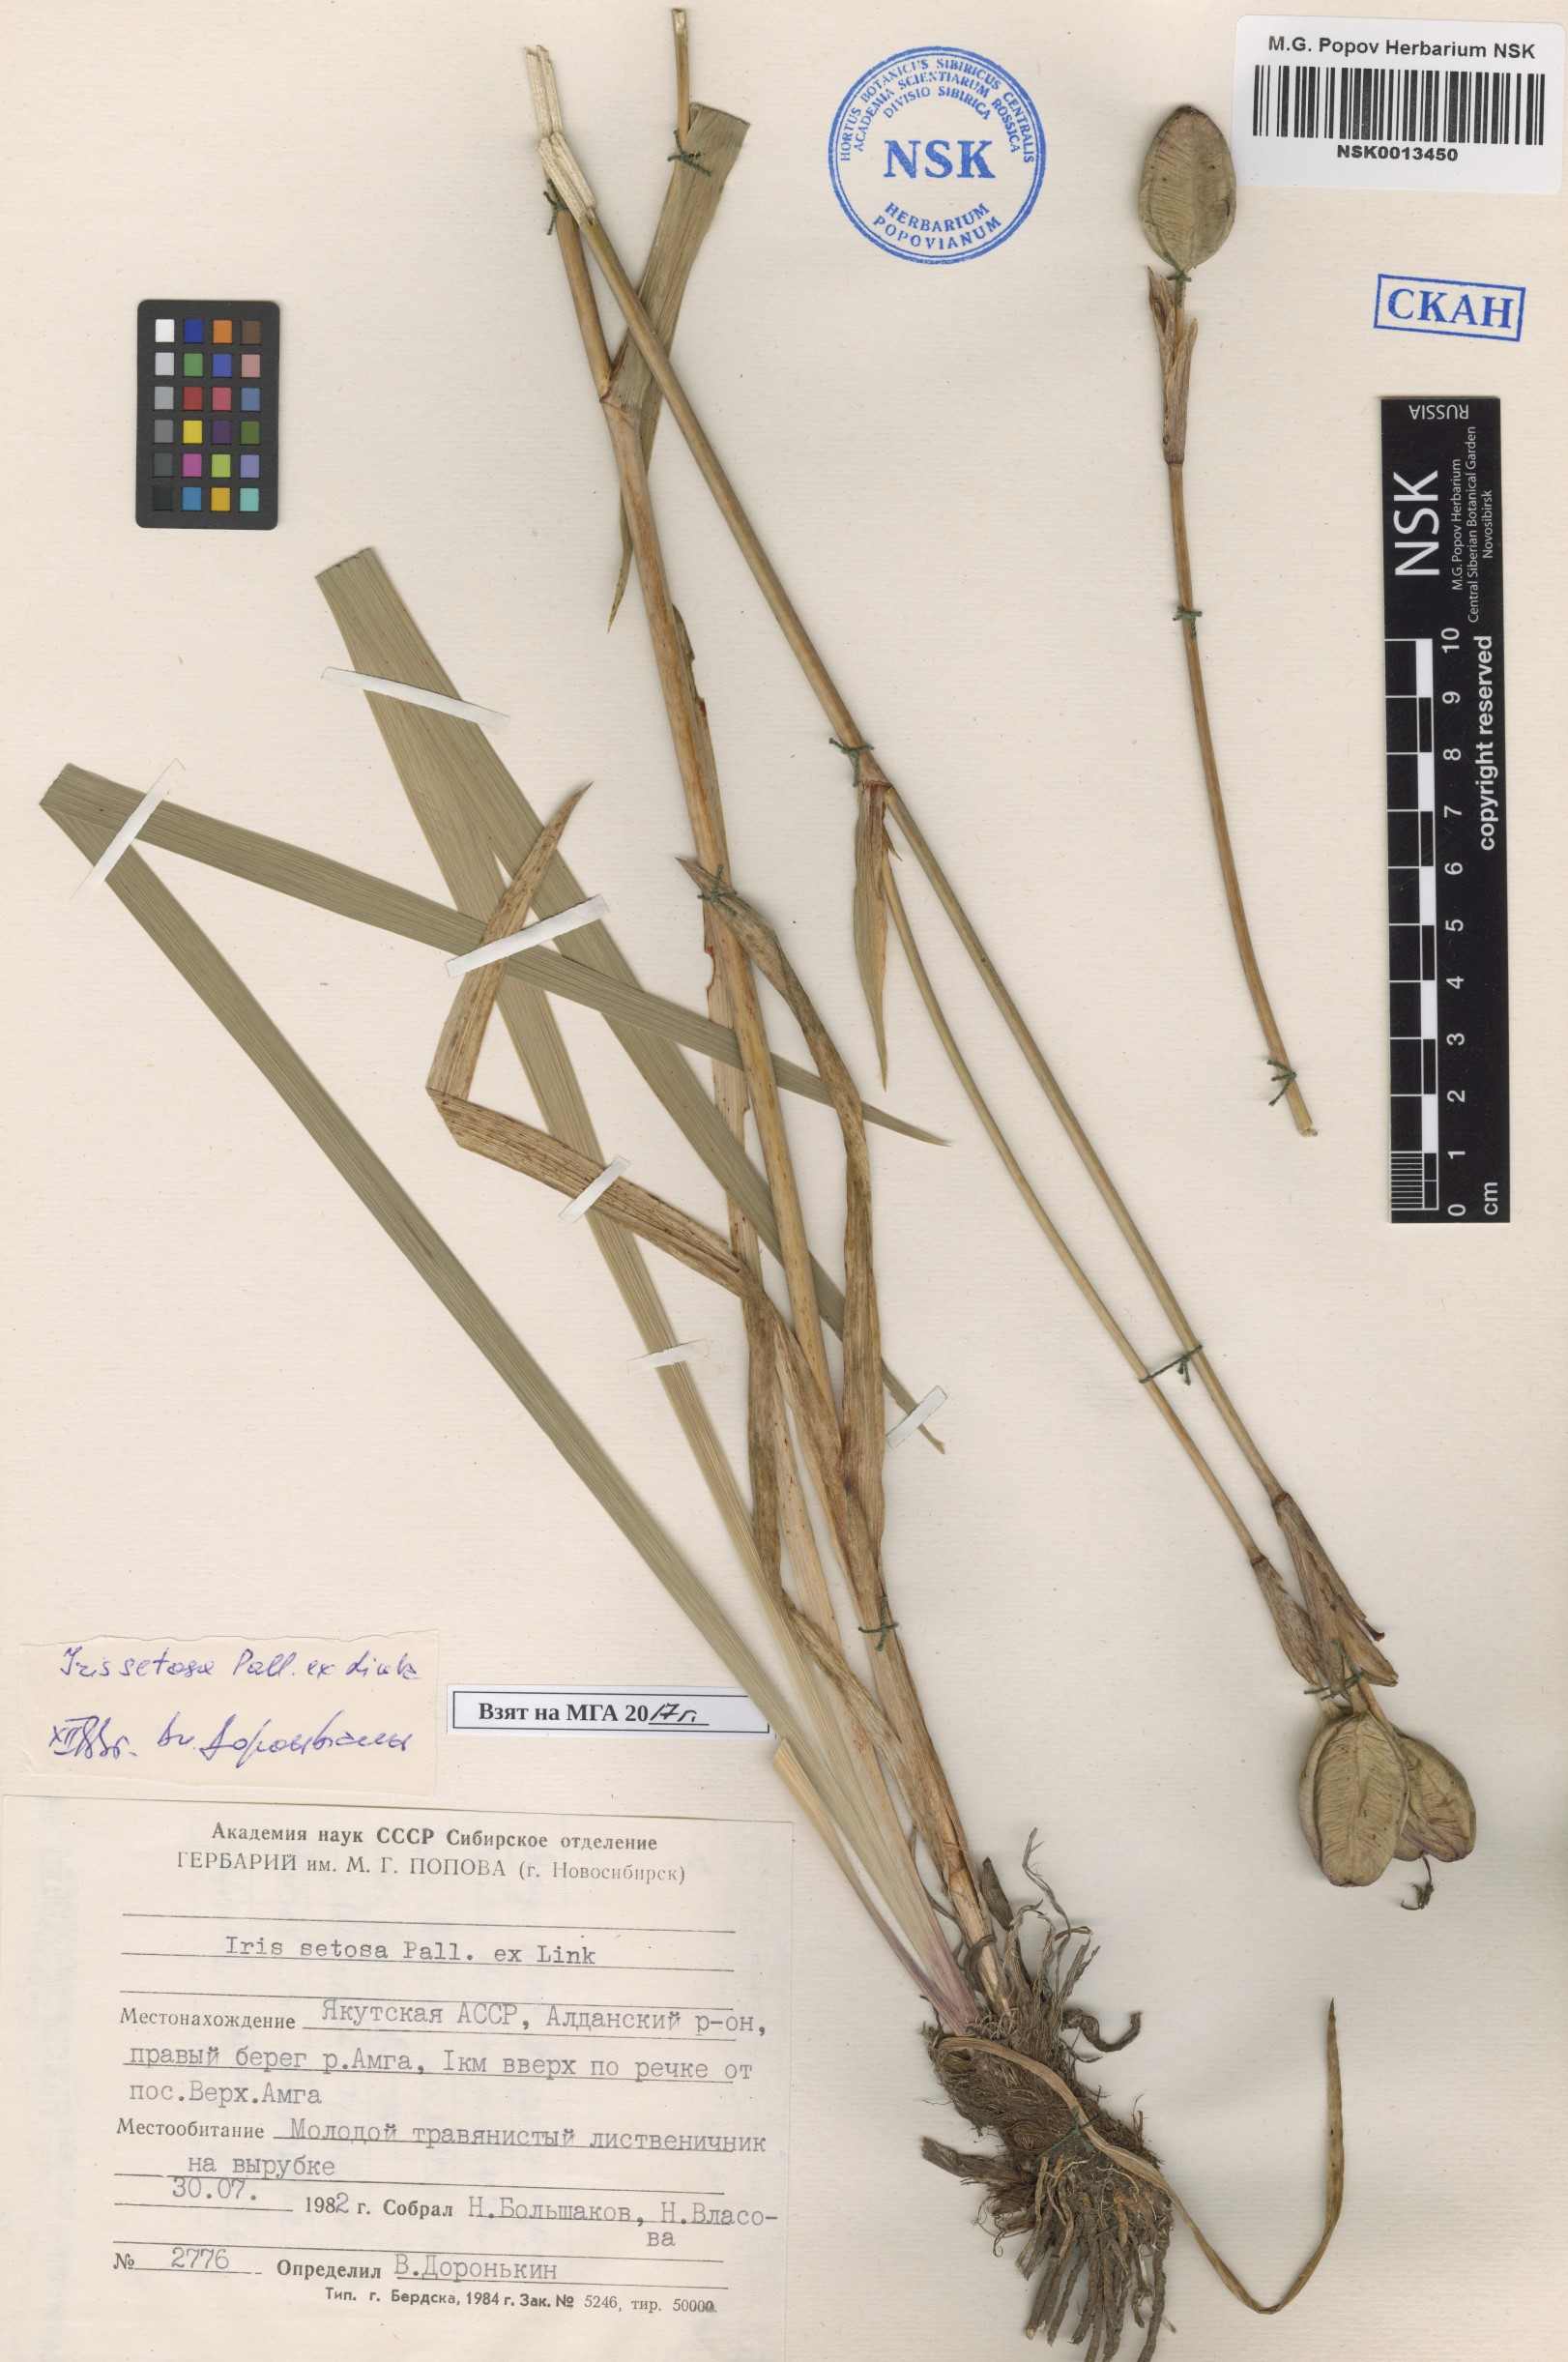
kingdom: Plantae
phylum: Tracheophyta
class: Liliopsida
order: Asparagales
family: Iridaceae
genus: Iris
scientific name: Iris setosa
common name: Arctic blue flag
